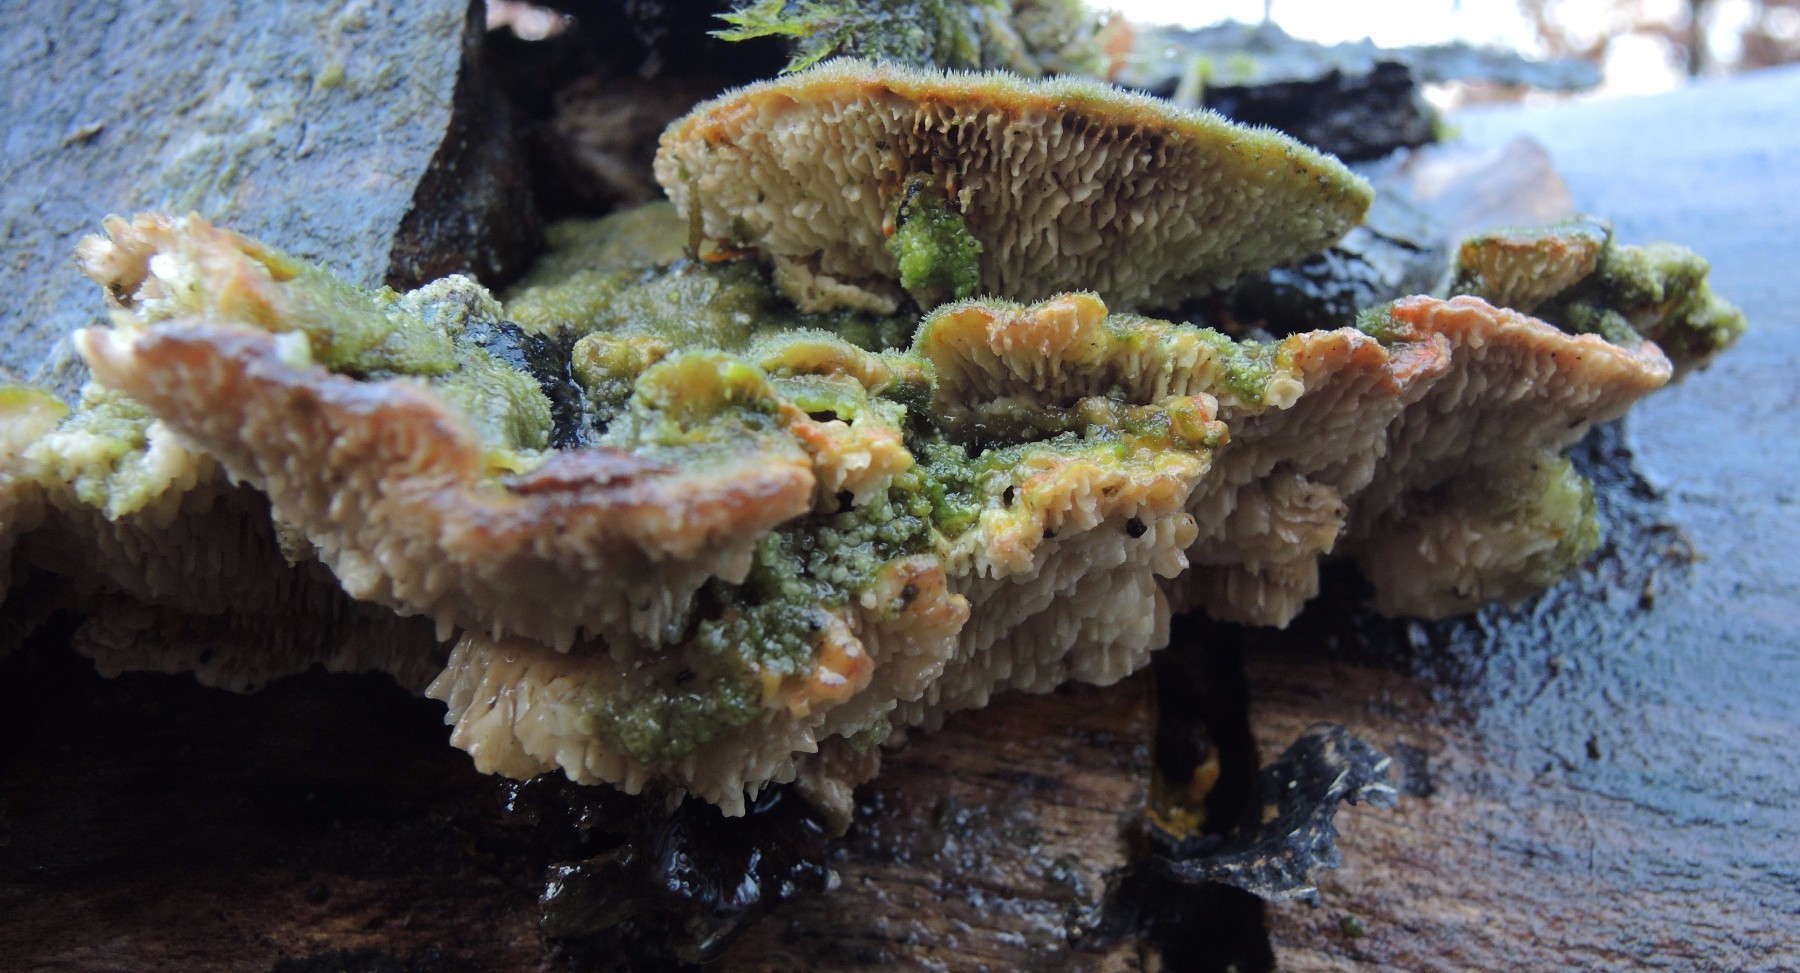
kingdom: Fungi
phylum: Basidiomycota
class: Agaricomycetes
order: Polyporales
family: Polyporaceae
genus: Lenzites
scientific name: Lenzites betulinus
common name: birke-læderporesvamp
